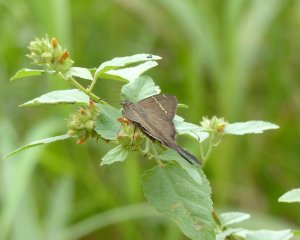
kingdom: Animalia
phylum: Arthropoda
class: Insecta
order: Lepidoptera
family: Hesperiidae
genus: Urbanus
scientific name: Urbanus teleus
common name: Teleus Longtail
